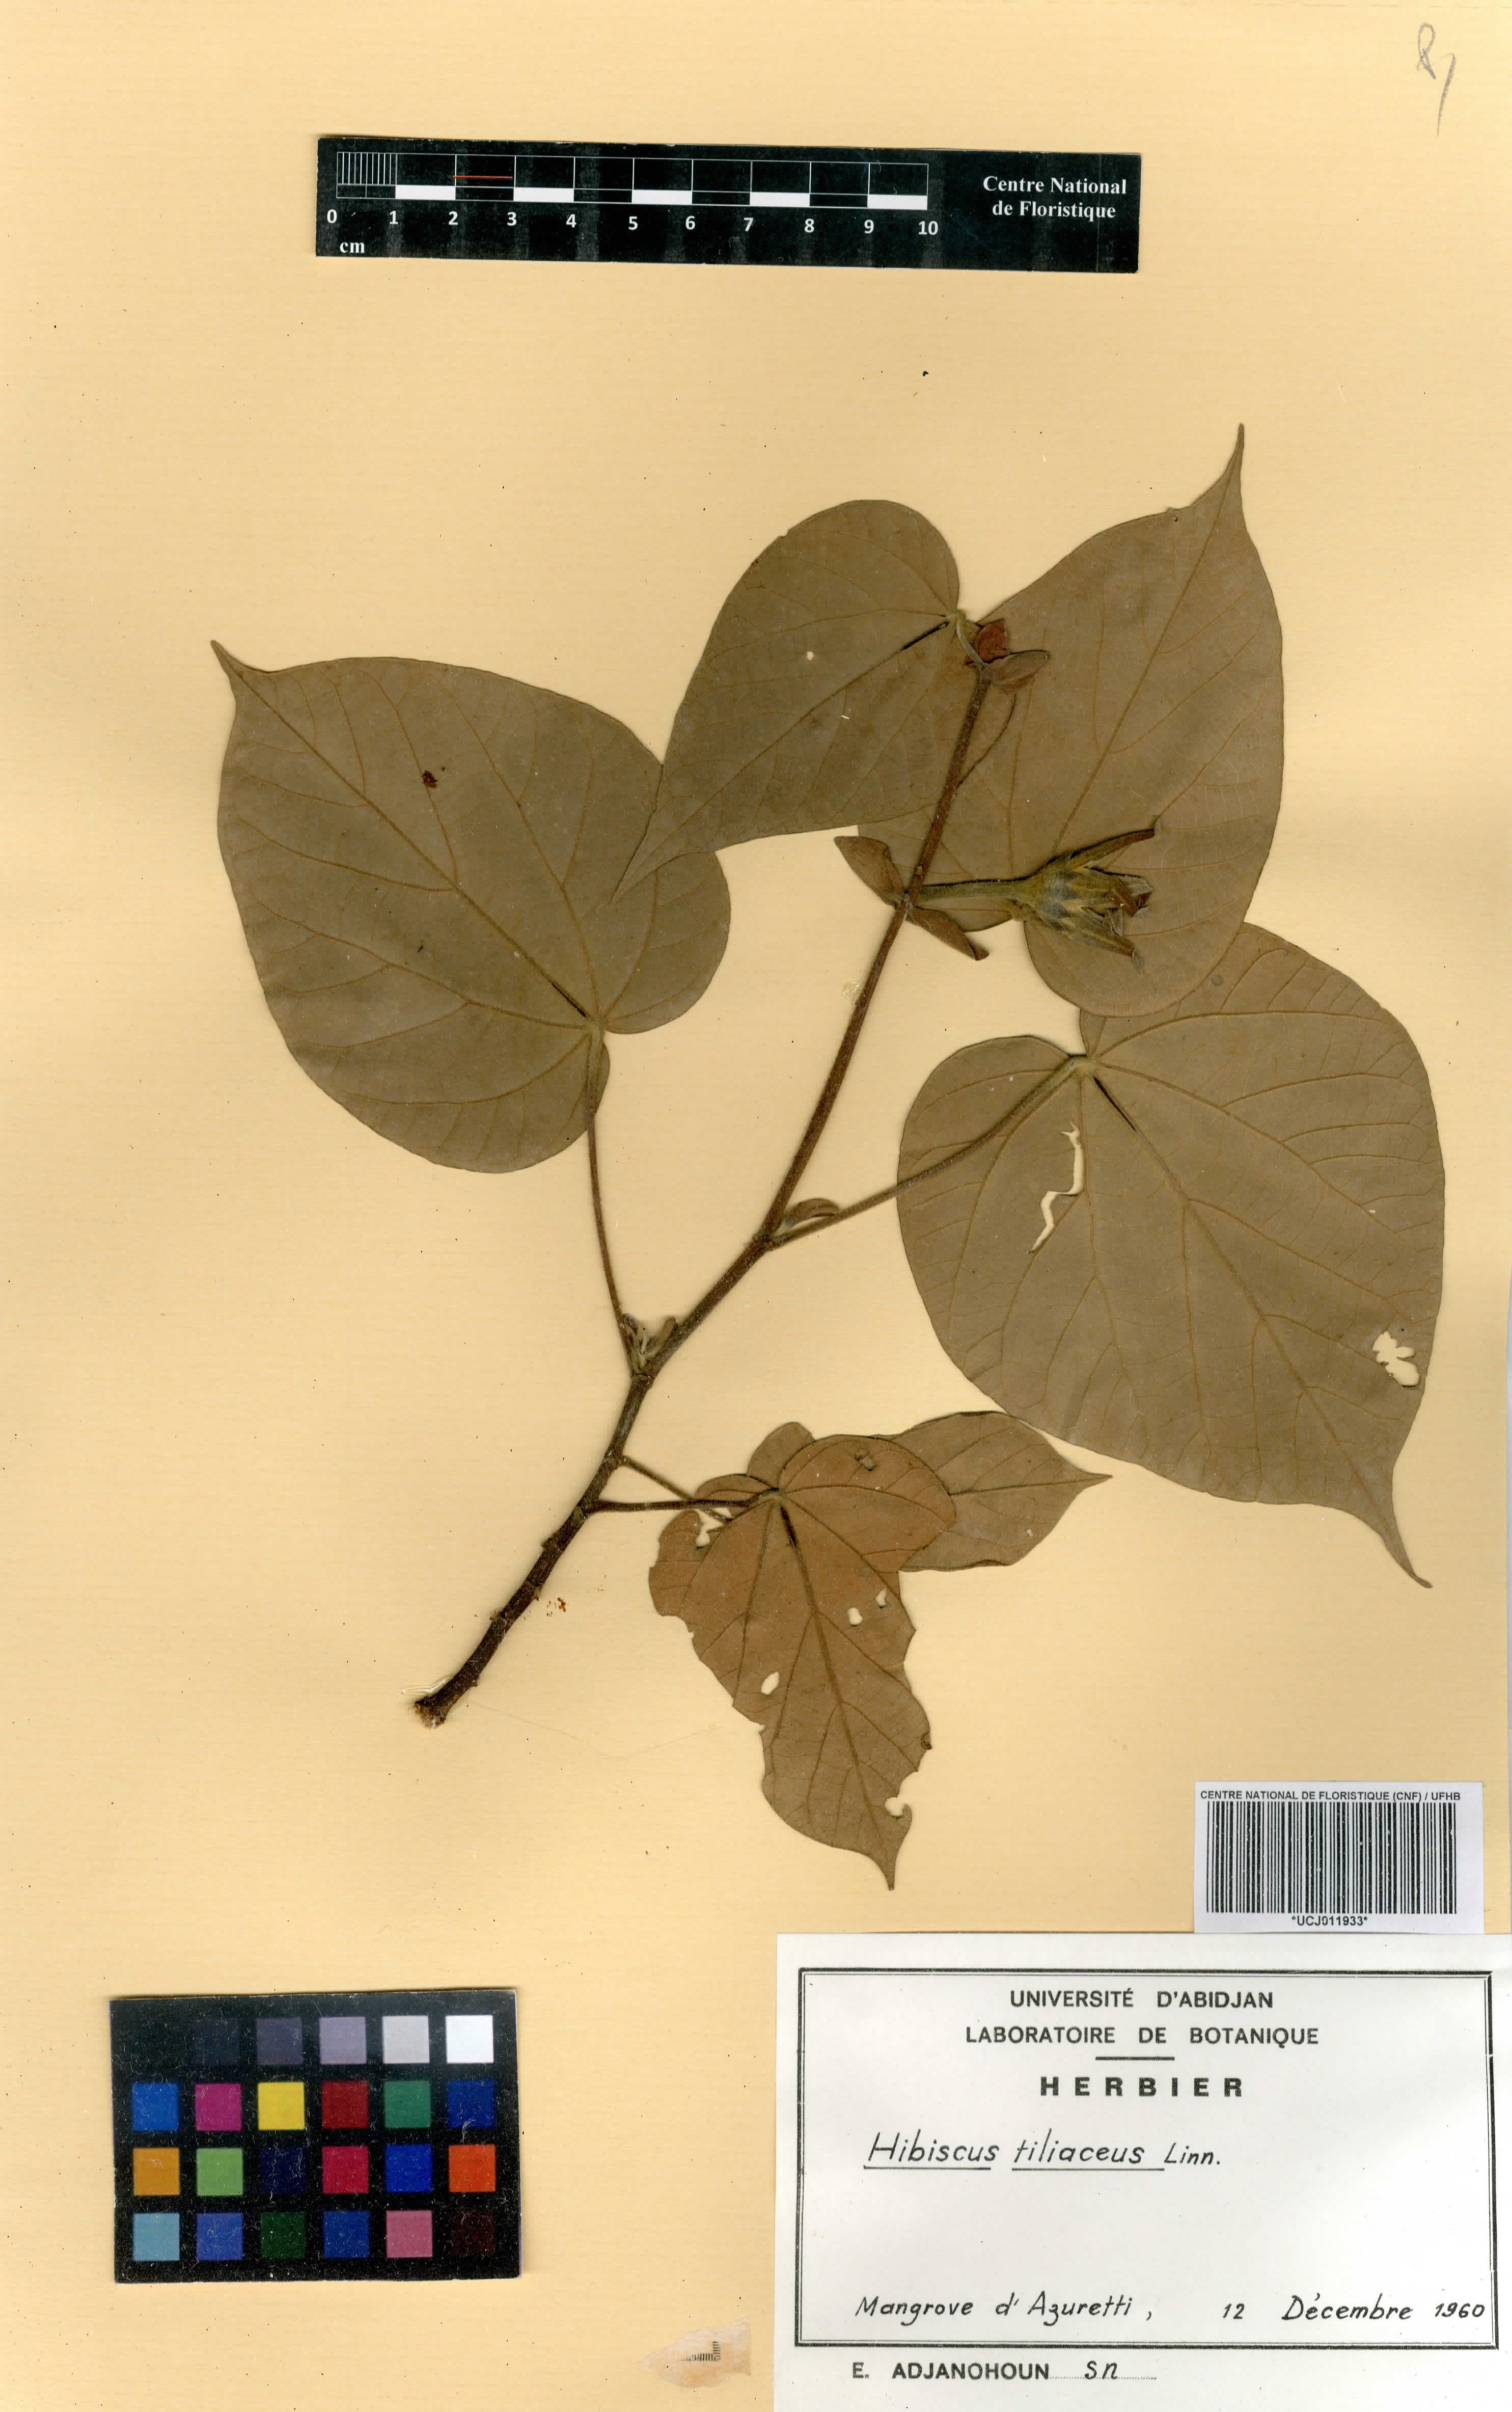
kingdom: Plantae
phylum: Tracheophyta
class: Magnoliopsida
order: Malvales
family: Malvaceae
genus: Talipariti
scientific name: Talipariti tiliaceum
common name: Sea hibiscus
